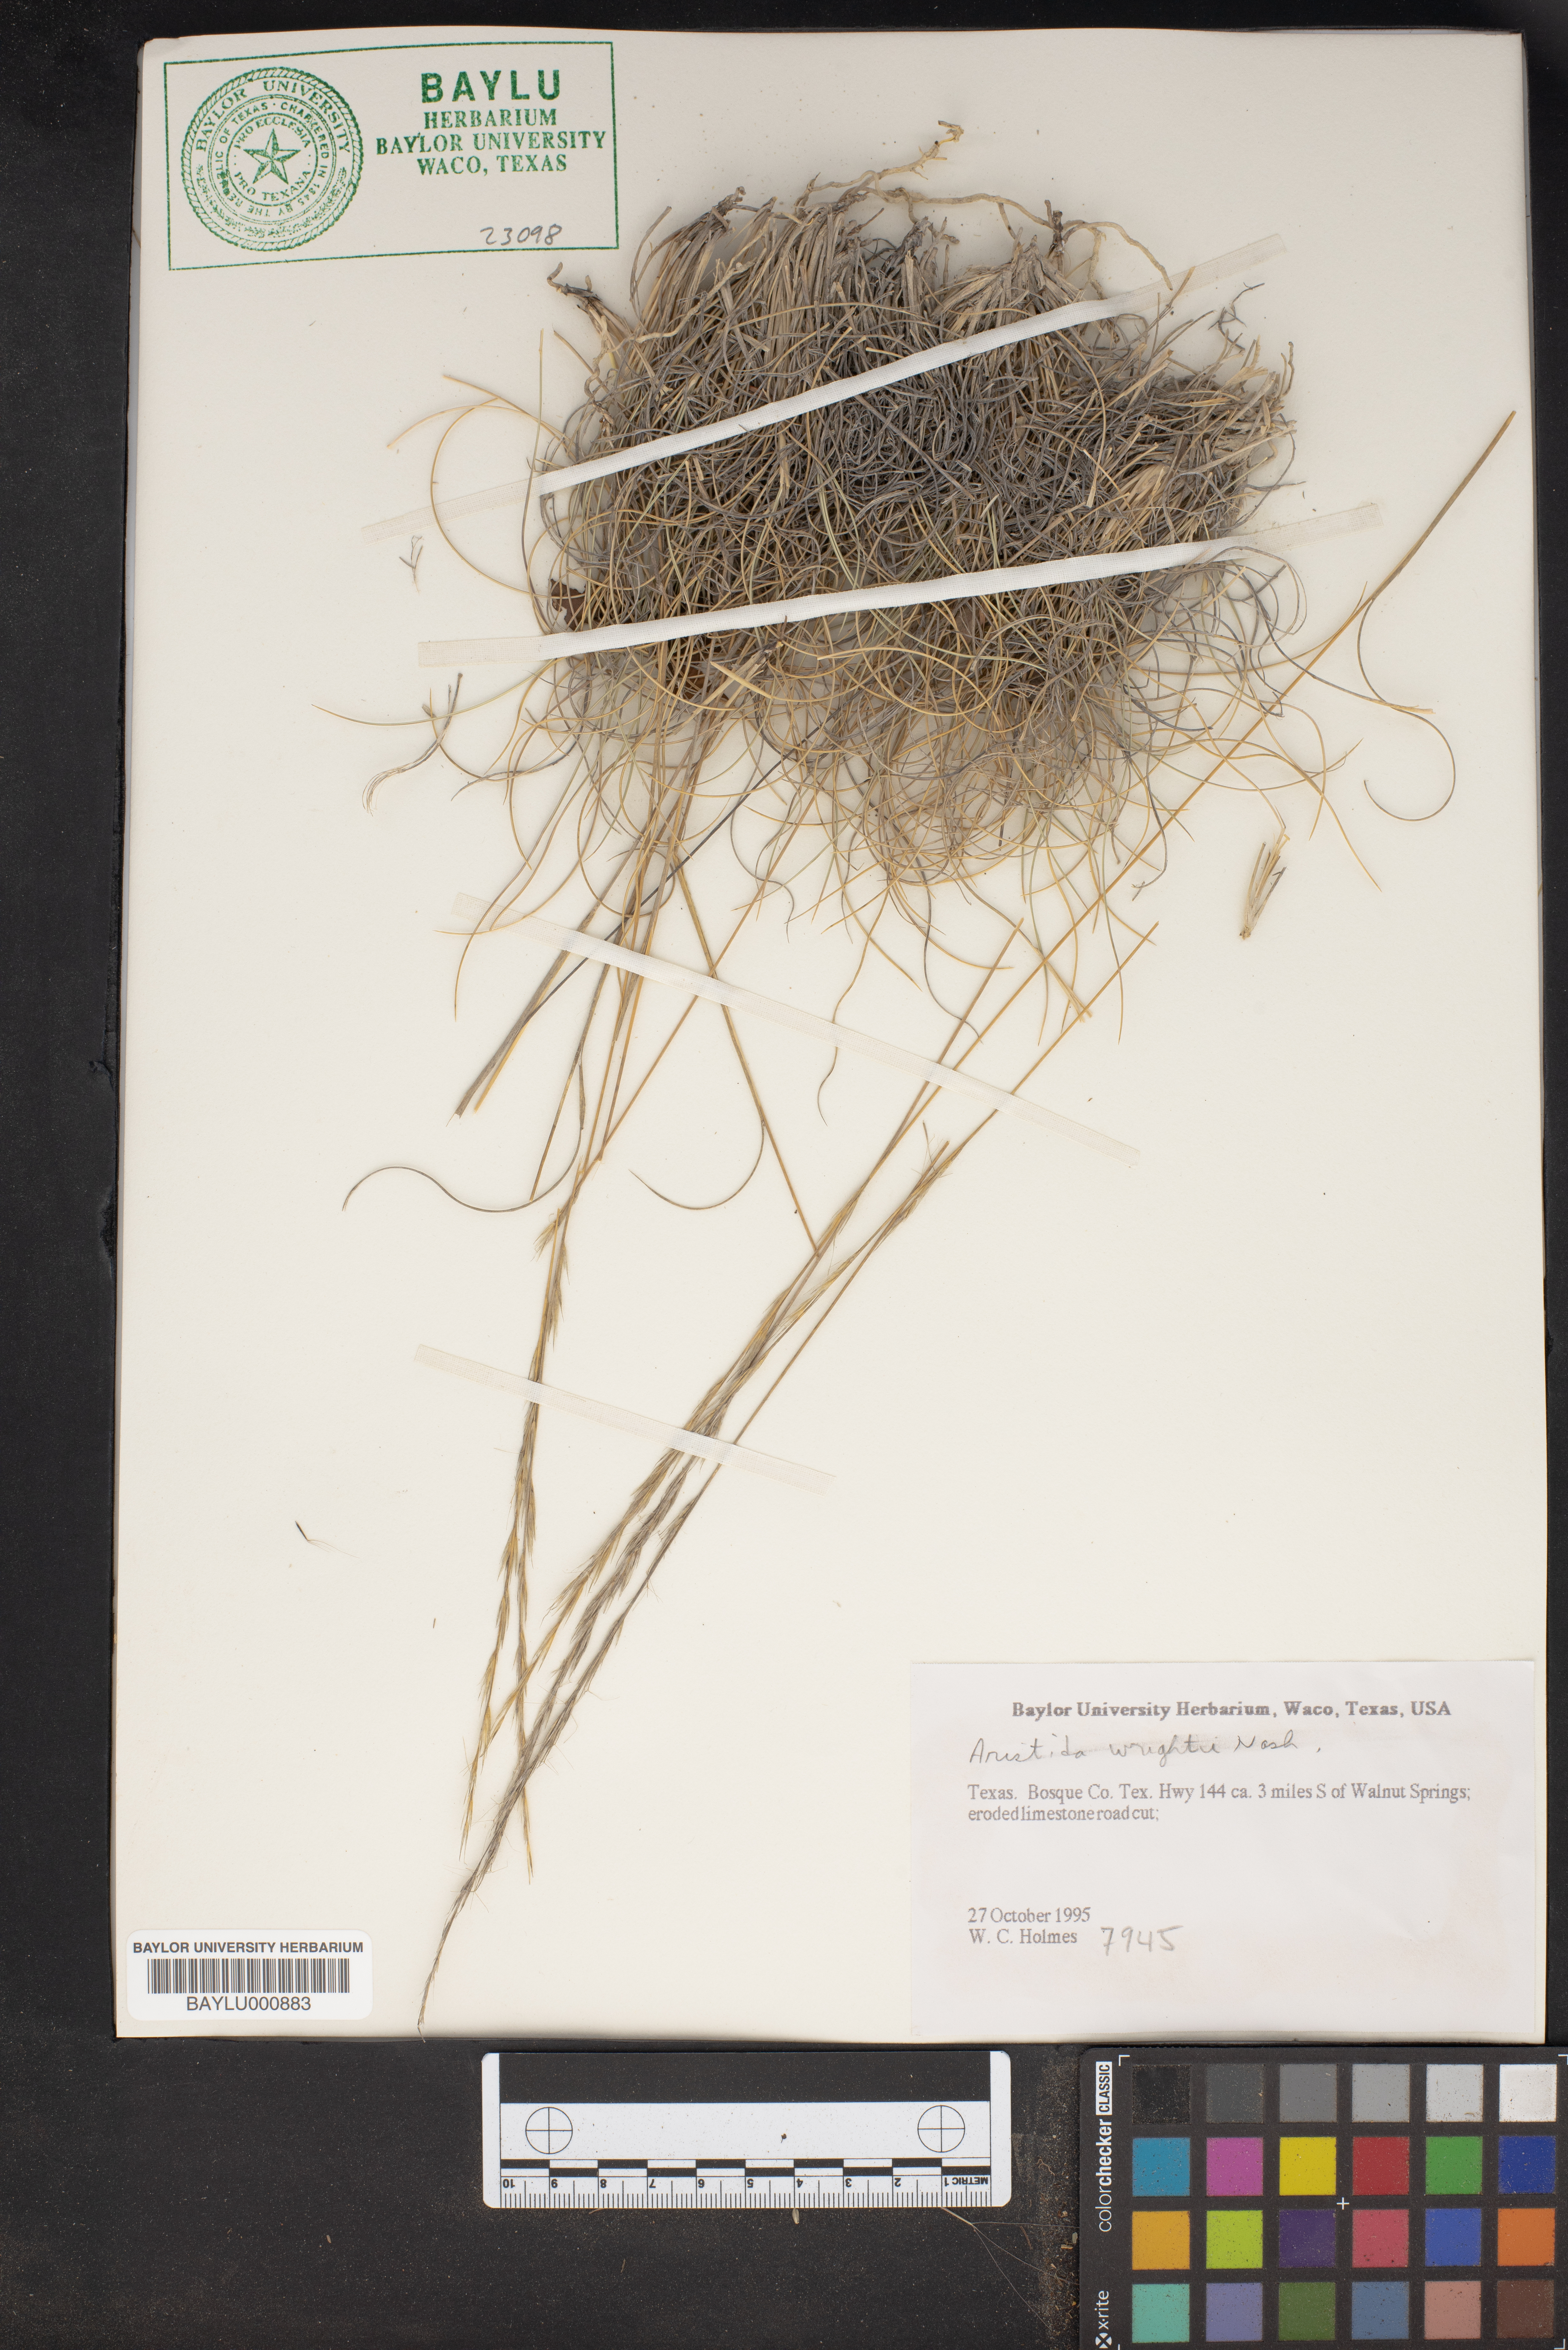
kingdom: Plantae
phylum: Tracheophyta
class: Liliopsida
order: Poales
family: Poaceae
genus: Aristida
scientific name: Aristida wrightii
